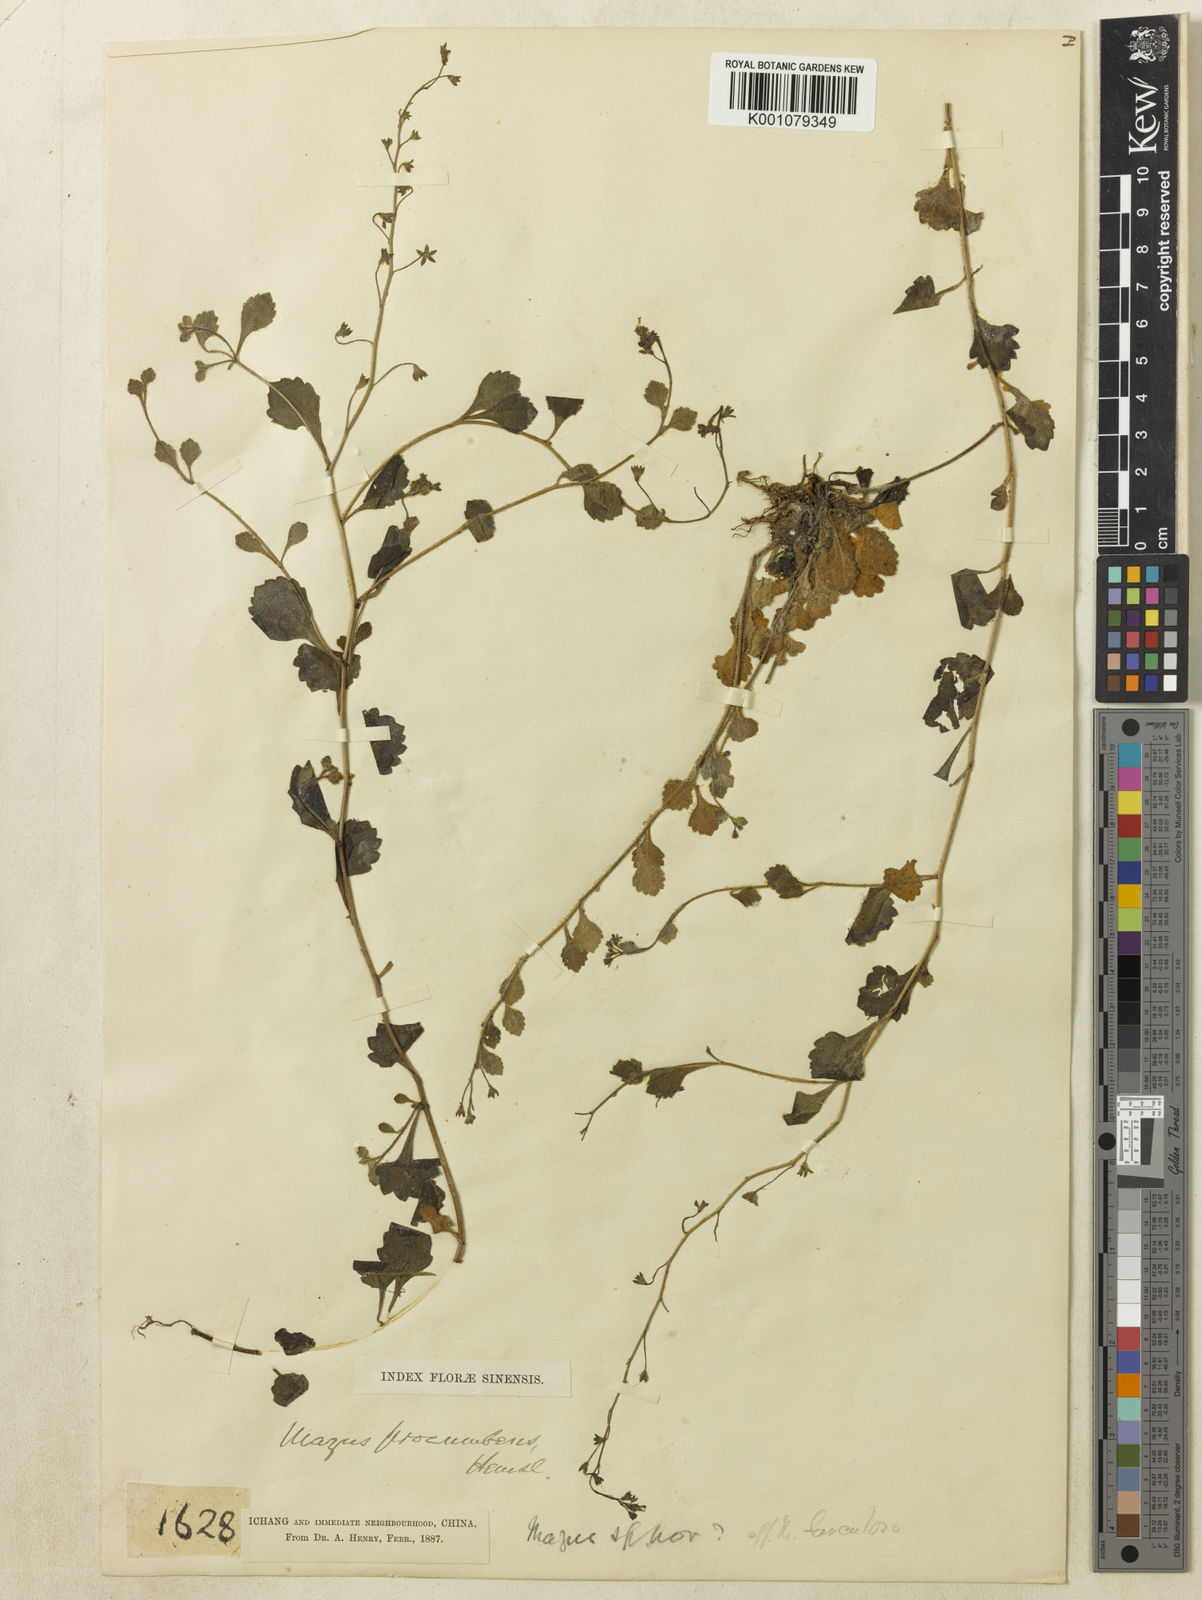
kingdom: Plantae
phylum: Tracheophyta
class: Magnoliopsida
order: Lamiales
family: Mazaceae
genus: Mazus
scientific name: Mazus procumbens
